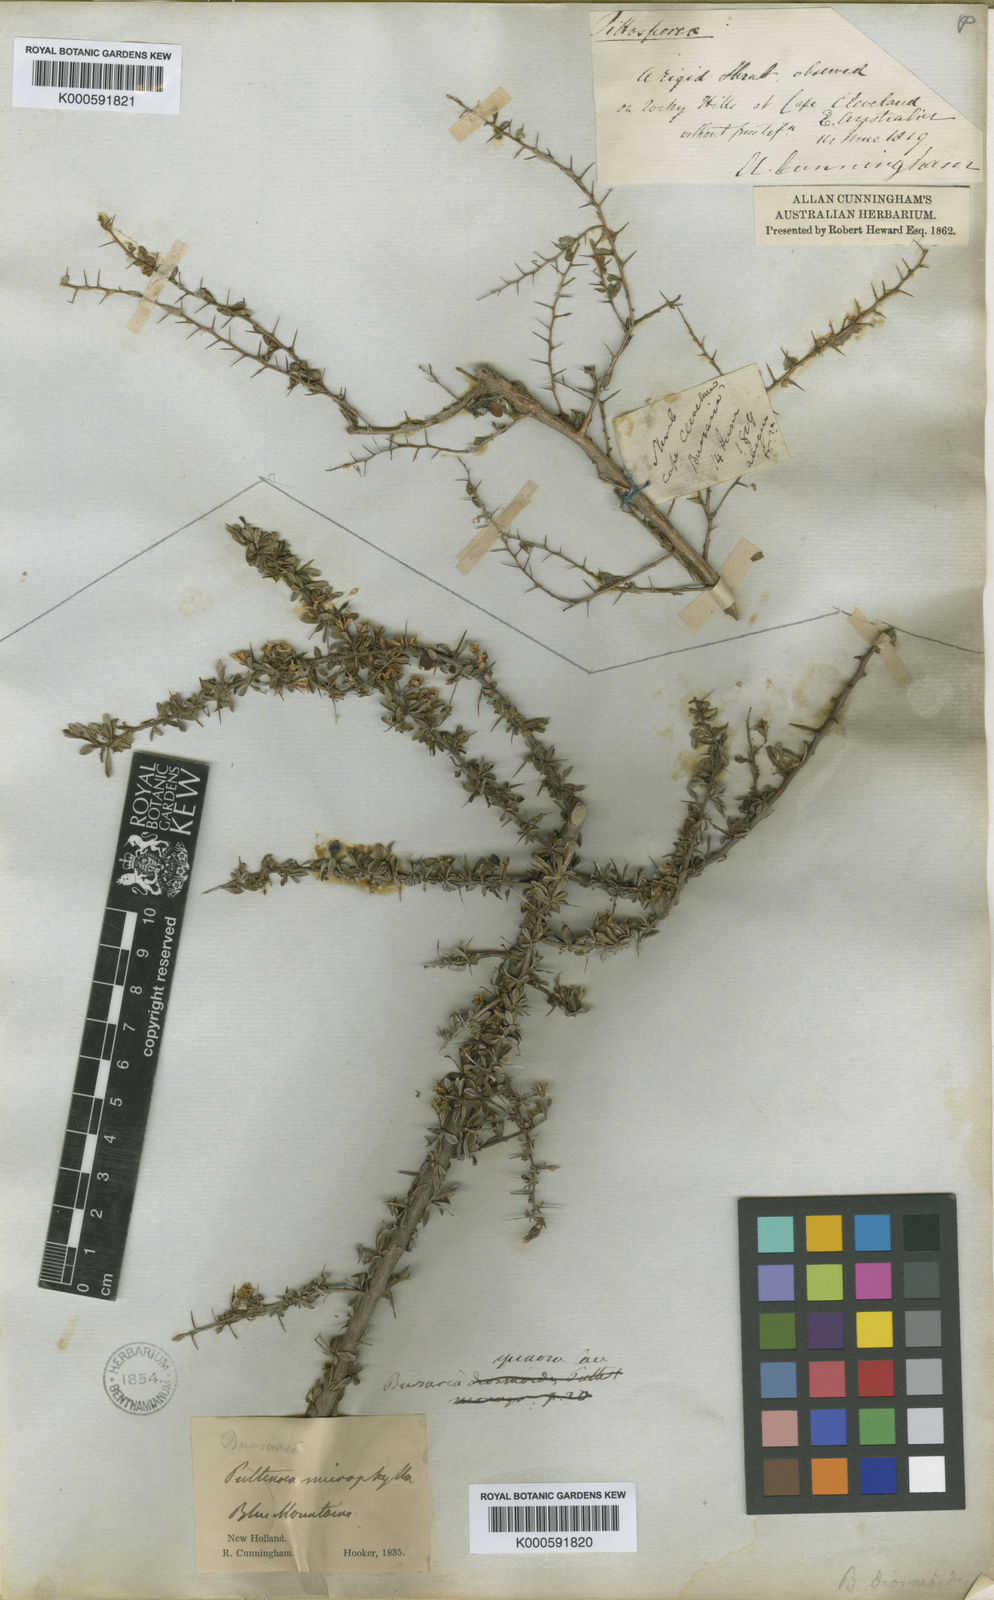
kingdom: Plantae
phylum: Tracheophyta
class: Magnoliopsida
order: Apiales
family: Pittosporaceae
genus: Bursaria
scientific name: Bursaria spinosa
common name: Australian blackthorn
